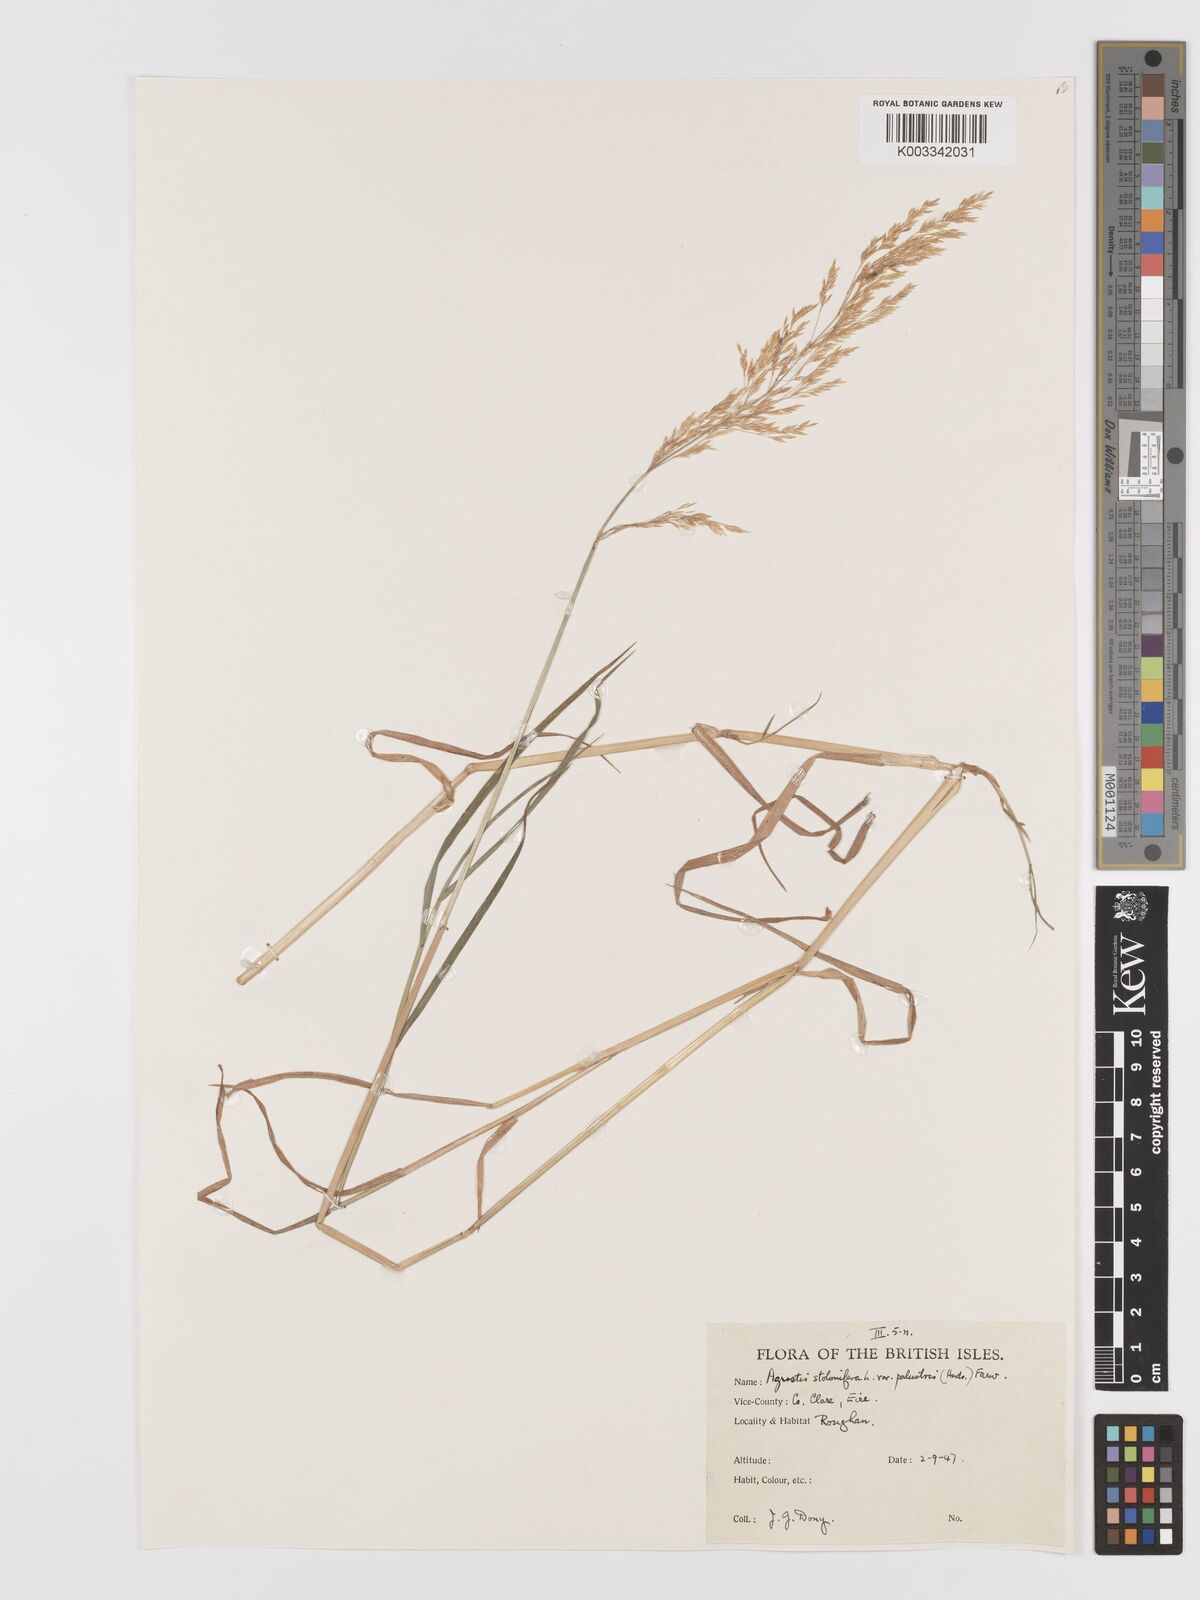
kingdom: Plantae
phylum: Tracheophyta
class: Liliopsida
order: Poales
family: Poaceae
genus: Agrostis
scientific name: Agrostis stolonifera
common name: Creeping bentgrass
